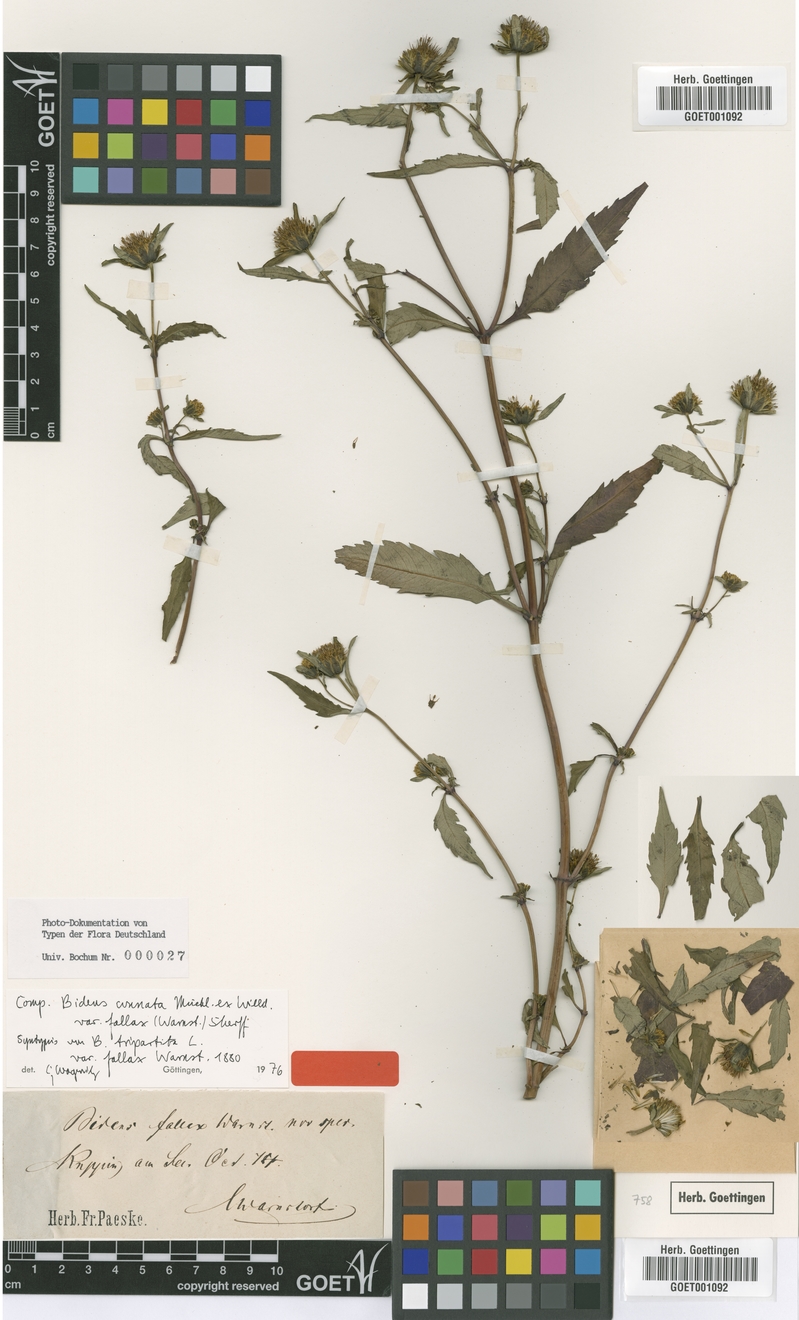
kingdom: Plantae
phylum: Tracheophyta
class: Magnoliopsida
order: Asterales
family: Asteraceae
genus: Bidens
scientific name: Bidens connata
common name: London bur-marigold
